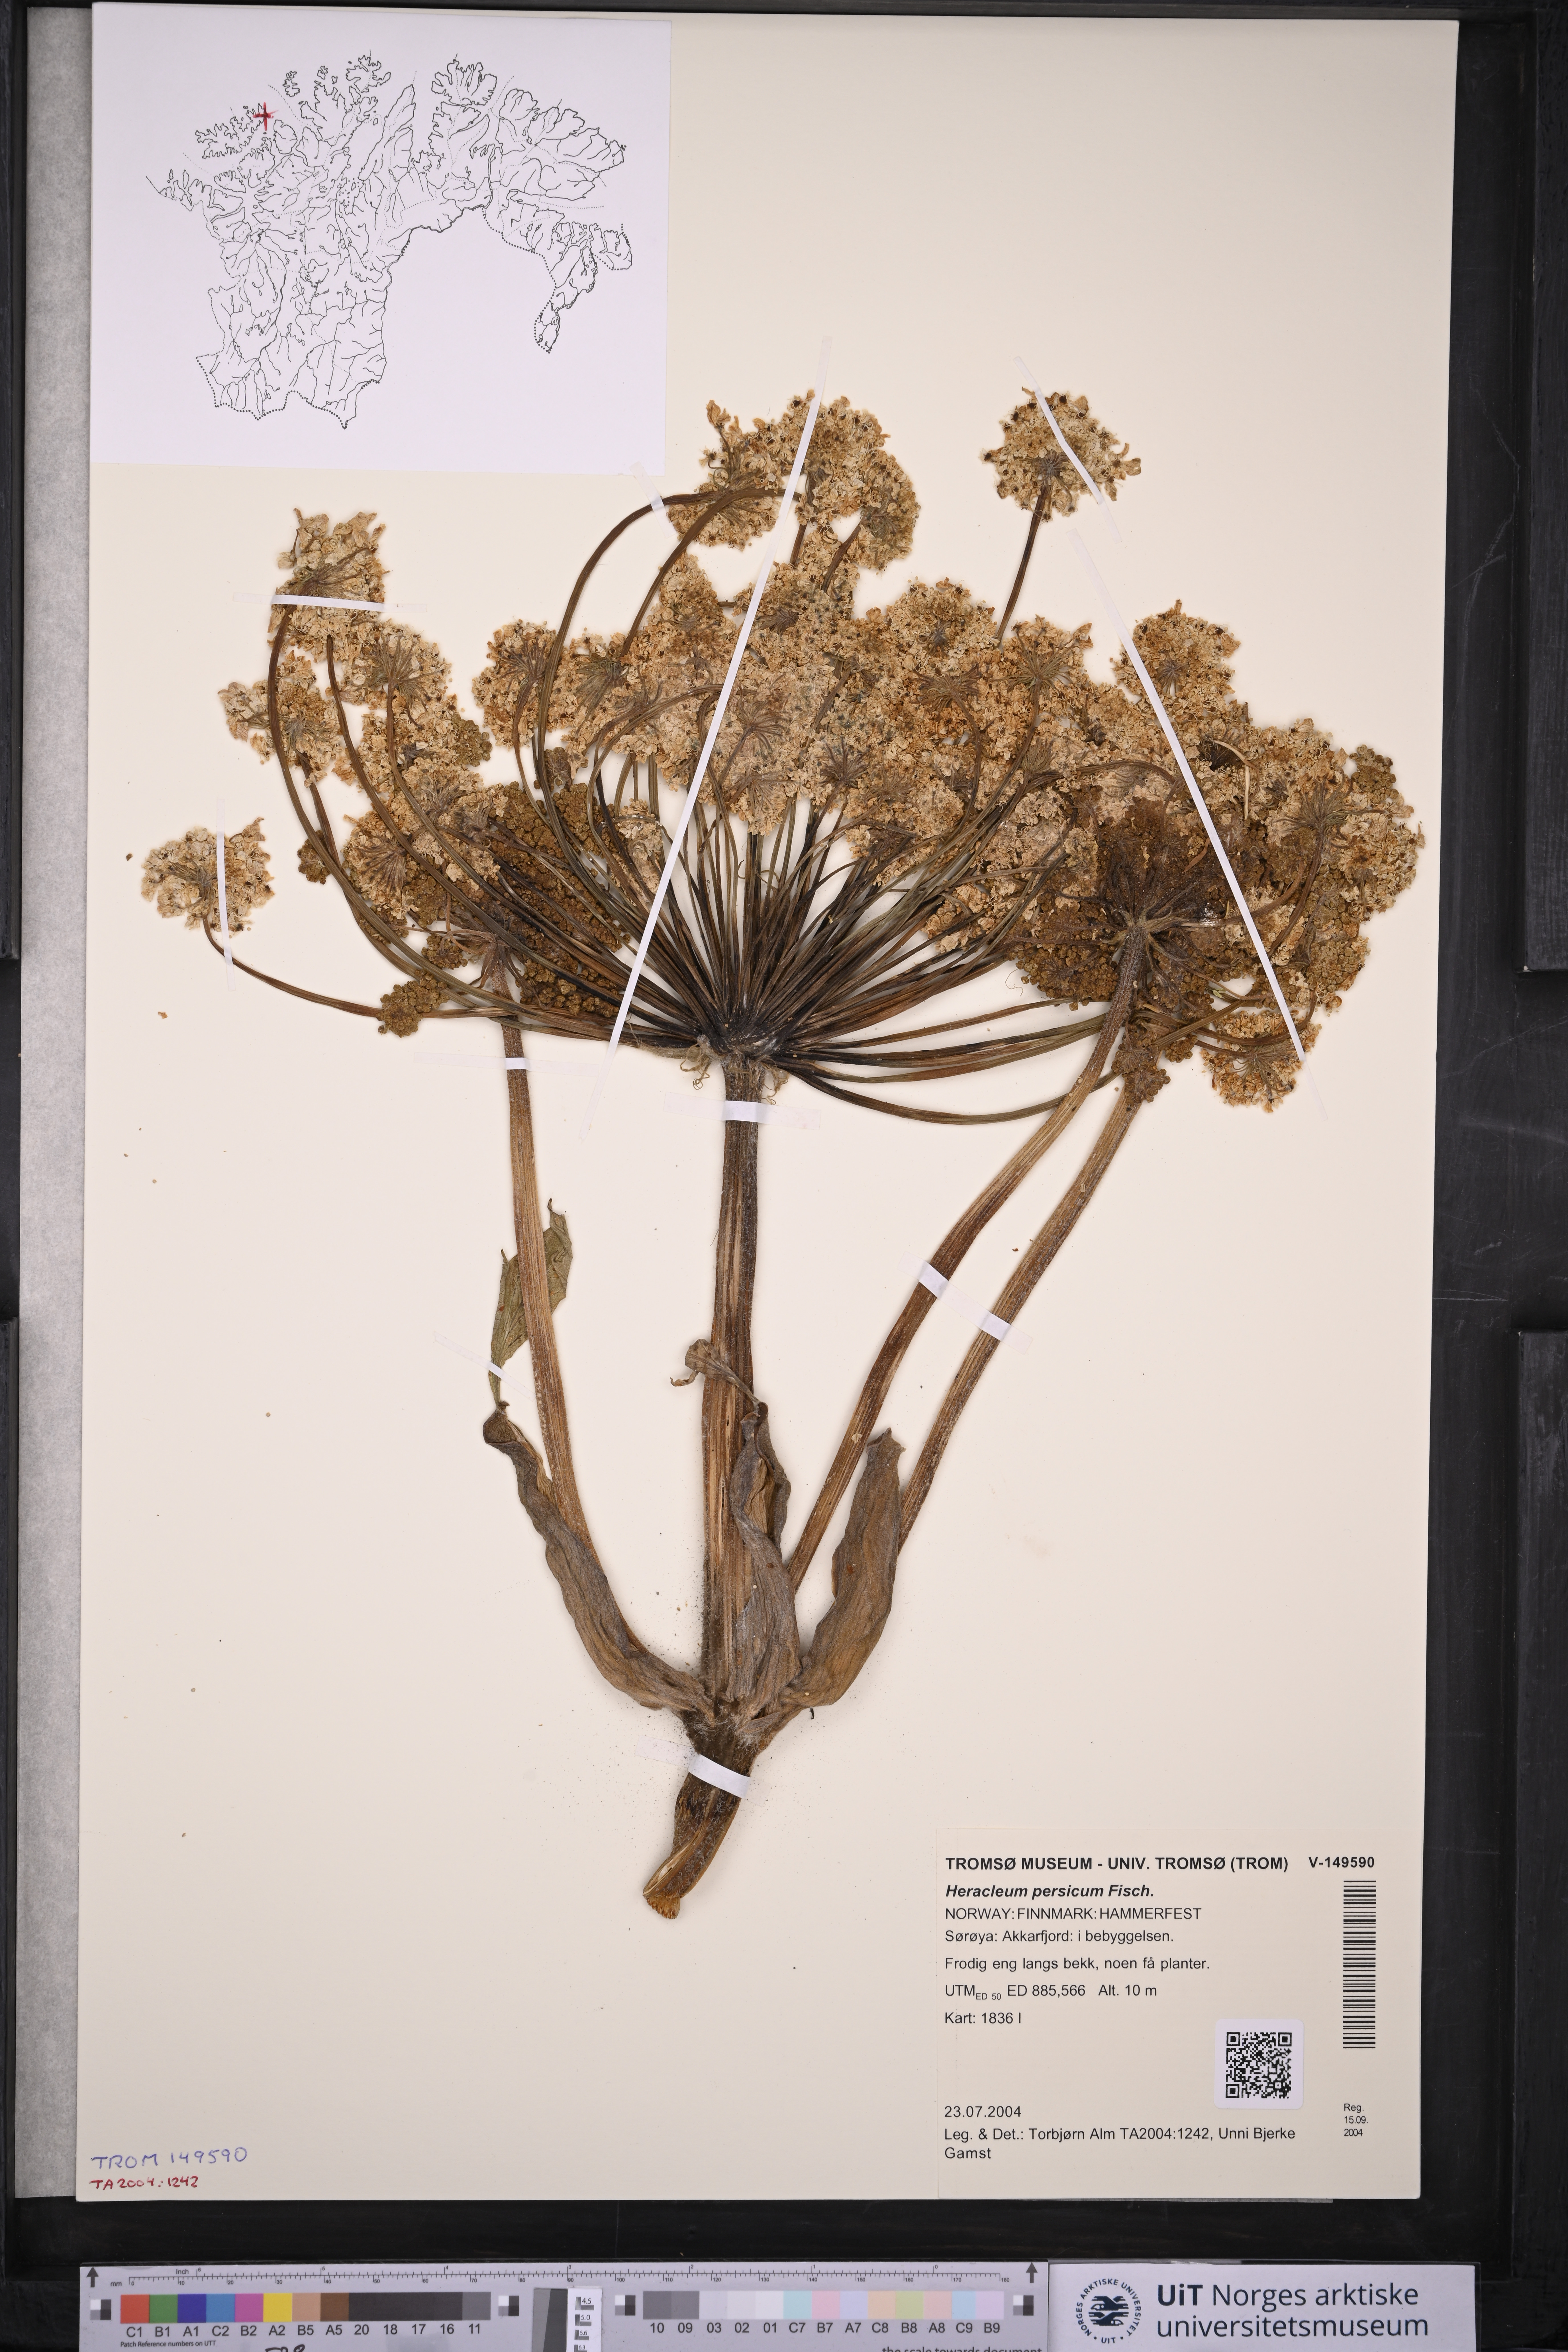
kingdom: Plantae
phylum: Tracheophyta
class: Magnoliopsida
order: Apiales
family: Apiaceae
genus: Heracleum
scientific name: Heracleum persicum
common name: Persian hogweed
